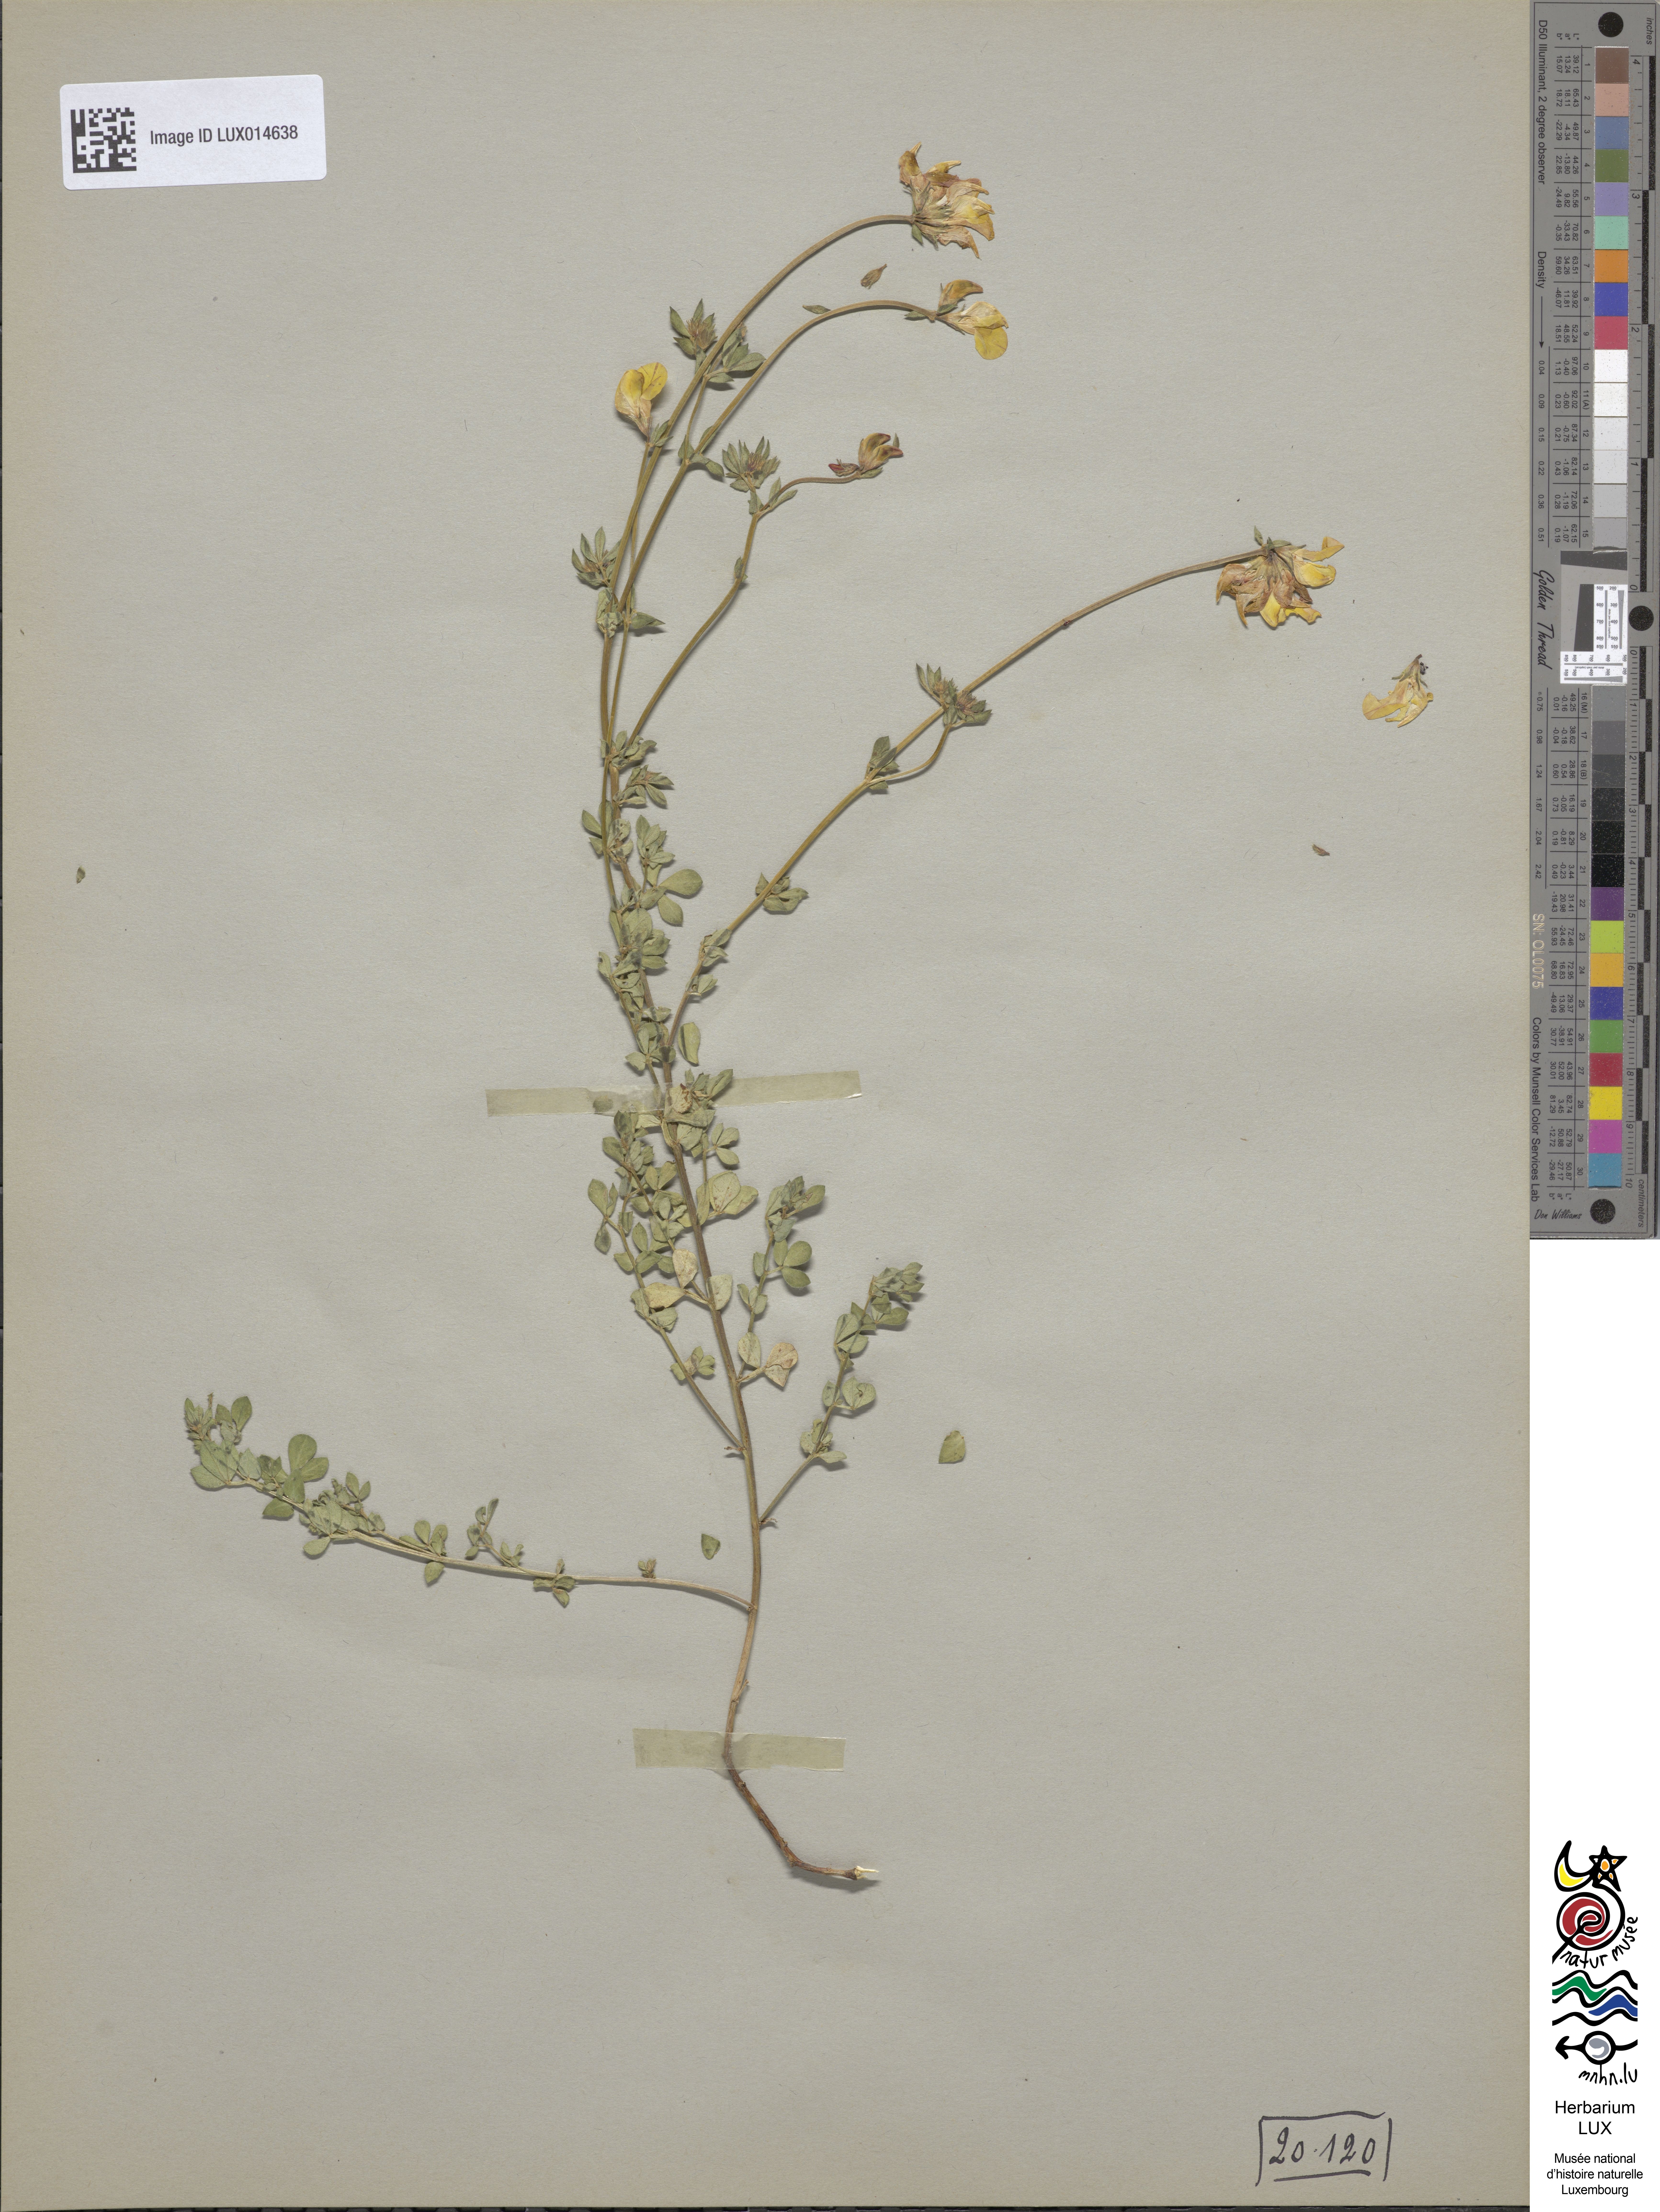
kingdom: Plantae
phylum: Tracheophyta
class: Magnoliopsida
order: Fabales
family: Fabaceae
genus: Lotus
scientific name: Lotus corniculatus
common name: Common bird's-foot-trefoil
